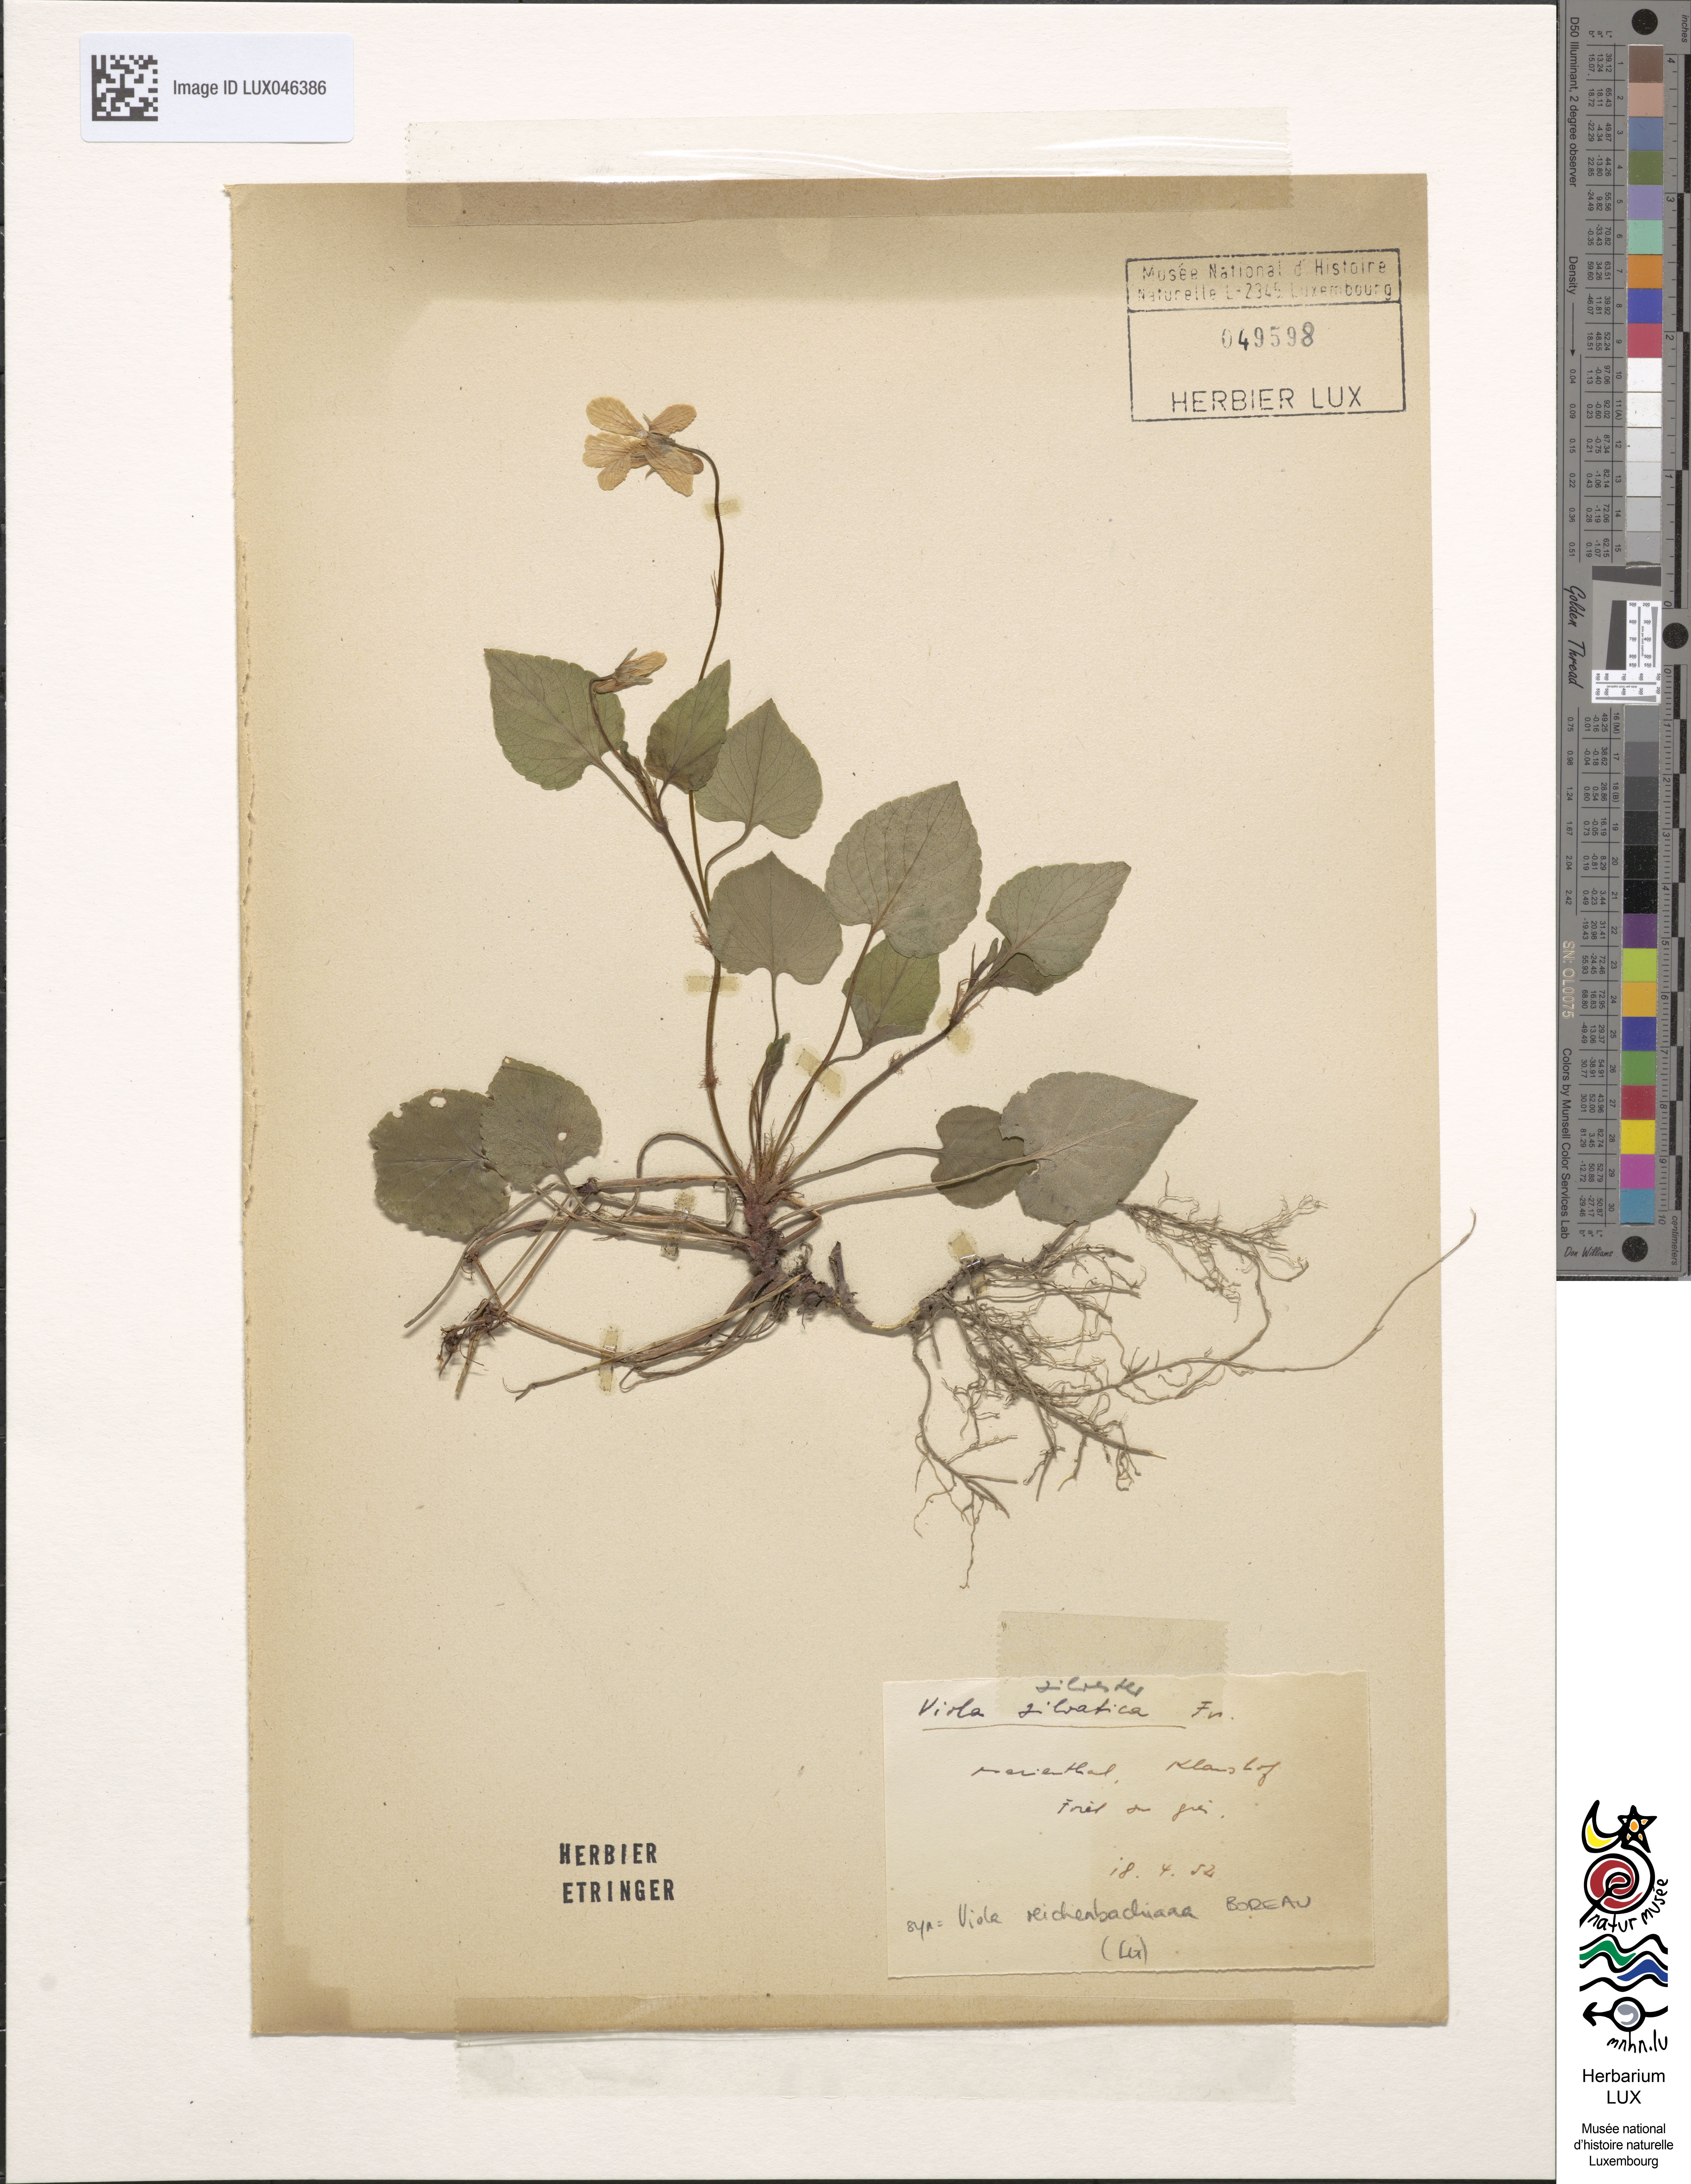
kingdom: Plantae
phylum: Tracheophyta
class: Magnoliopsida
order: Malpighiales
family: Violaceae
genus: Viola
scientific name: Viola canina
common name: Heath dog-violet
